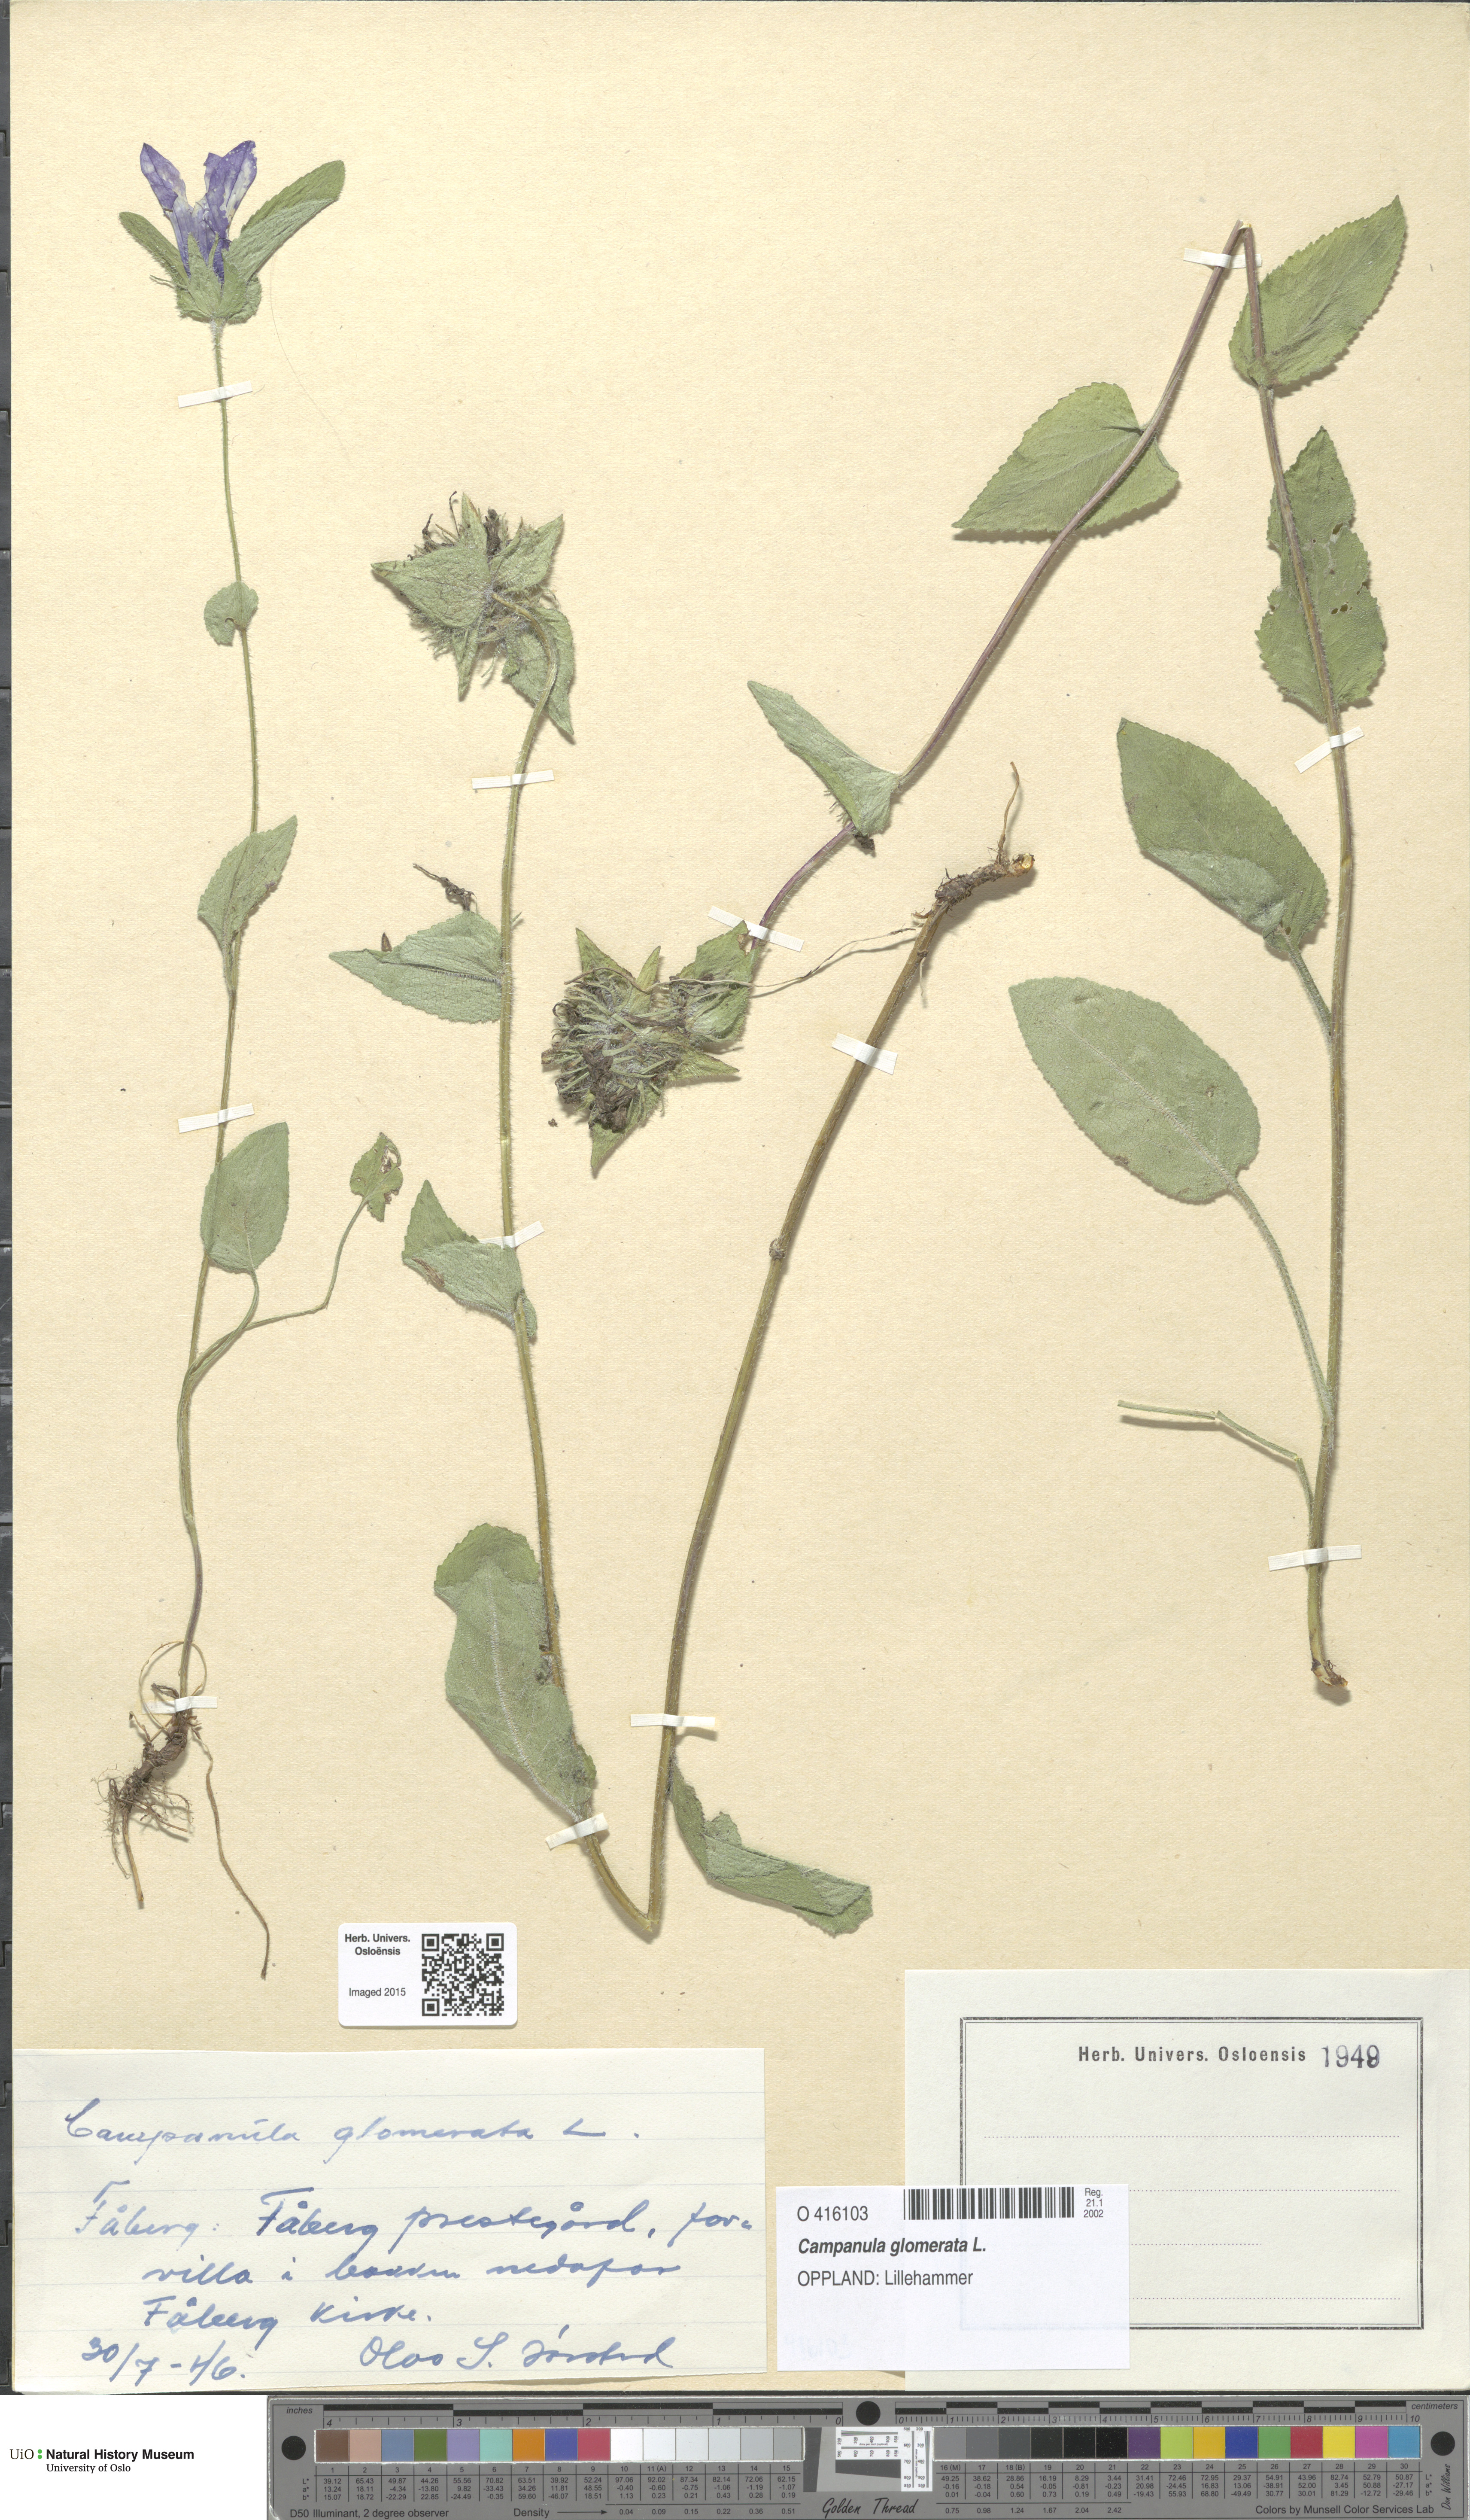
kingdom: Plantae
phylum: Tracheophyta
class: Magnoliopsida
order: Asterales
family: Campanulaceae
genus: Campanula
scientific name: Campanula glomerata
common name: Clustered bellflower
